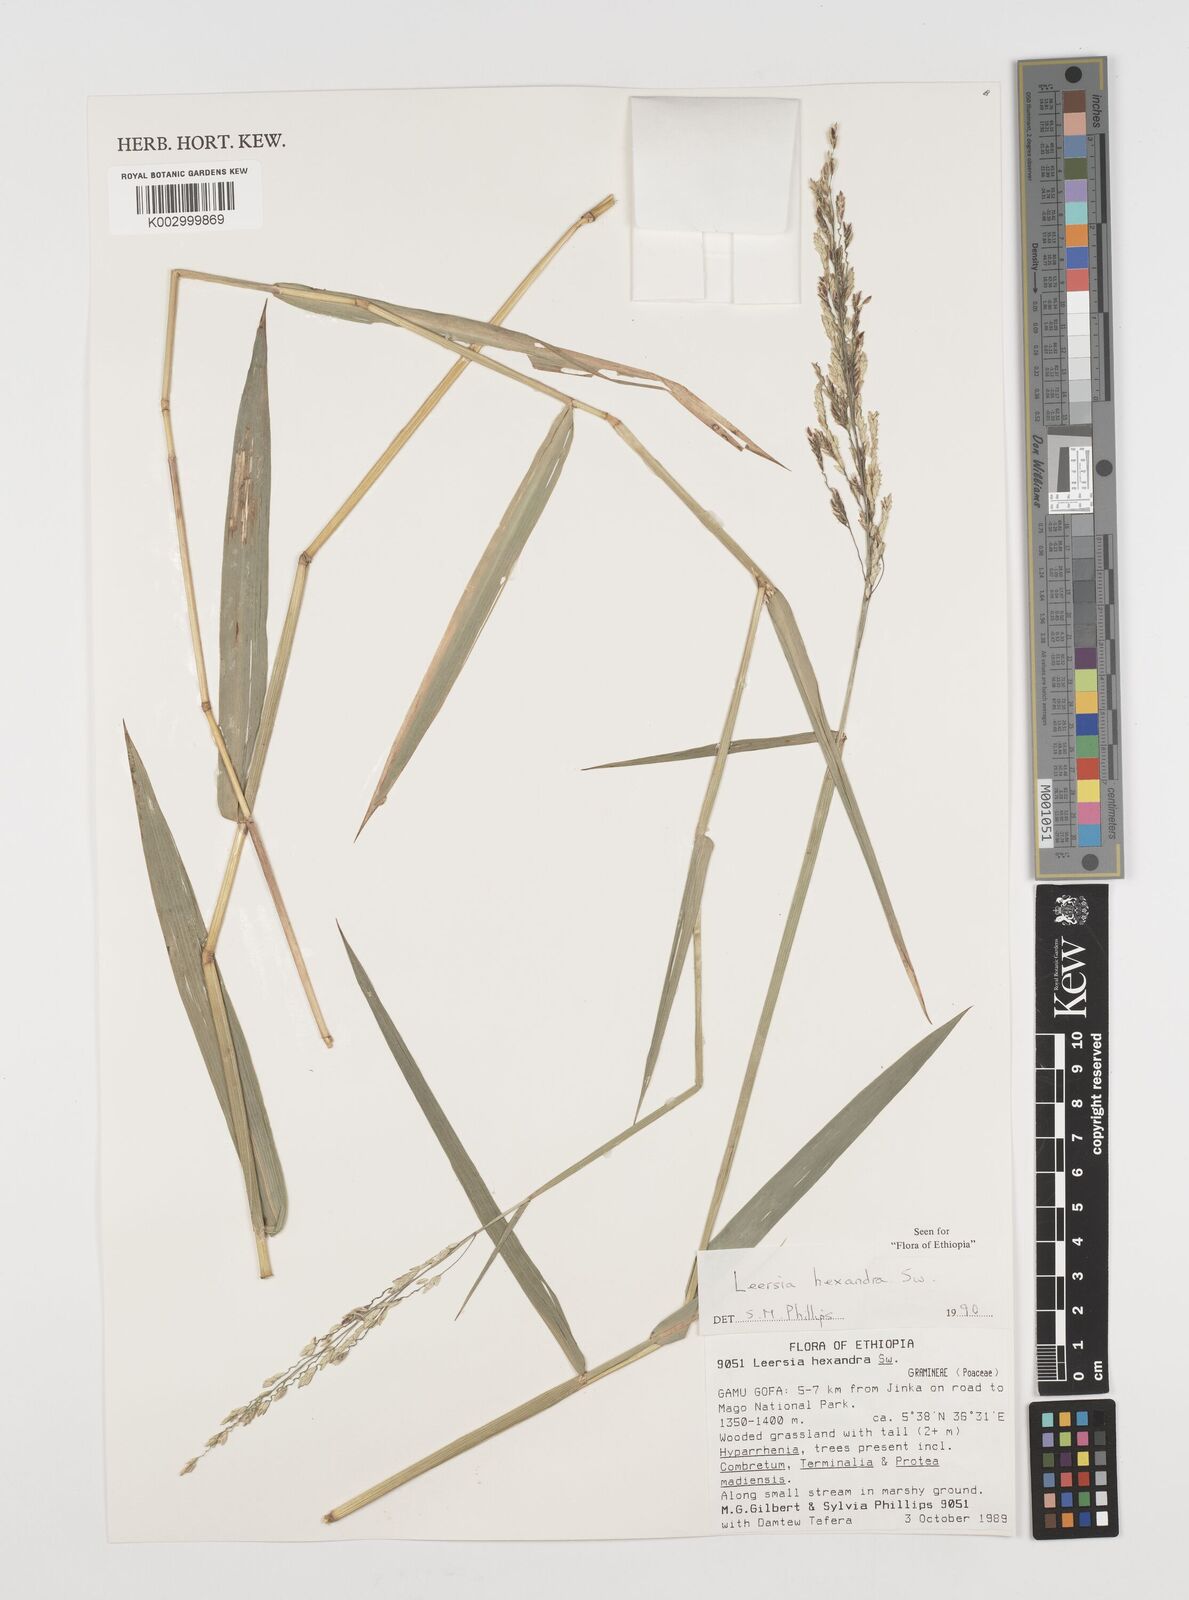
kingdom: Plantae
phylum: Tracheophyta
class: Liliopsida
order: Poales
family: Poaceae
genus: Leersia
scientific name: Leersia hexandra
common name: Southern cut grass
